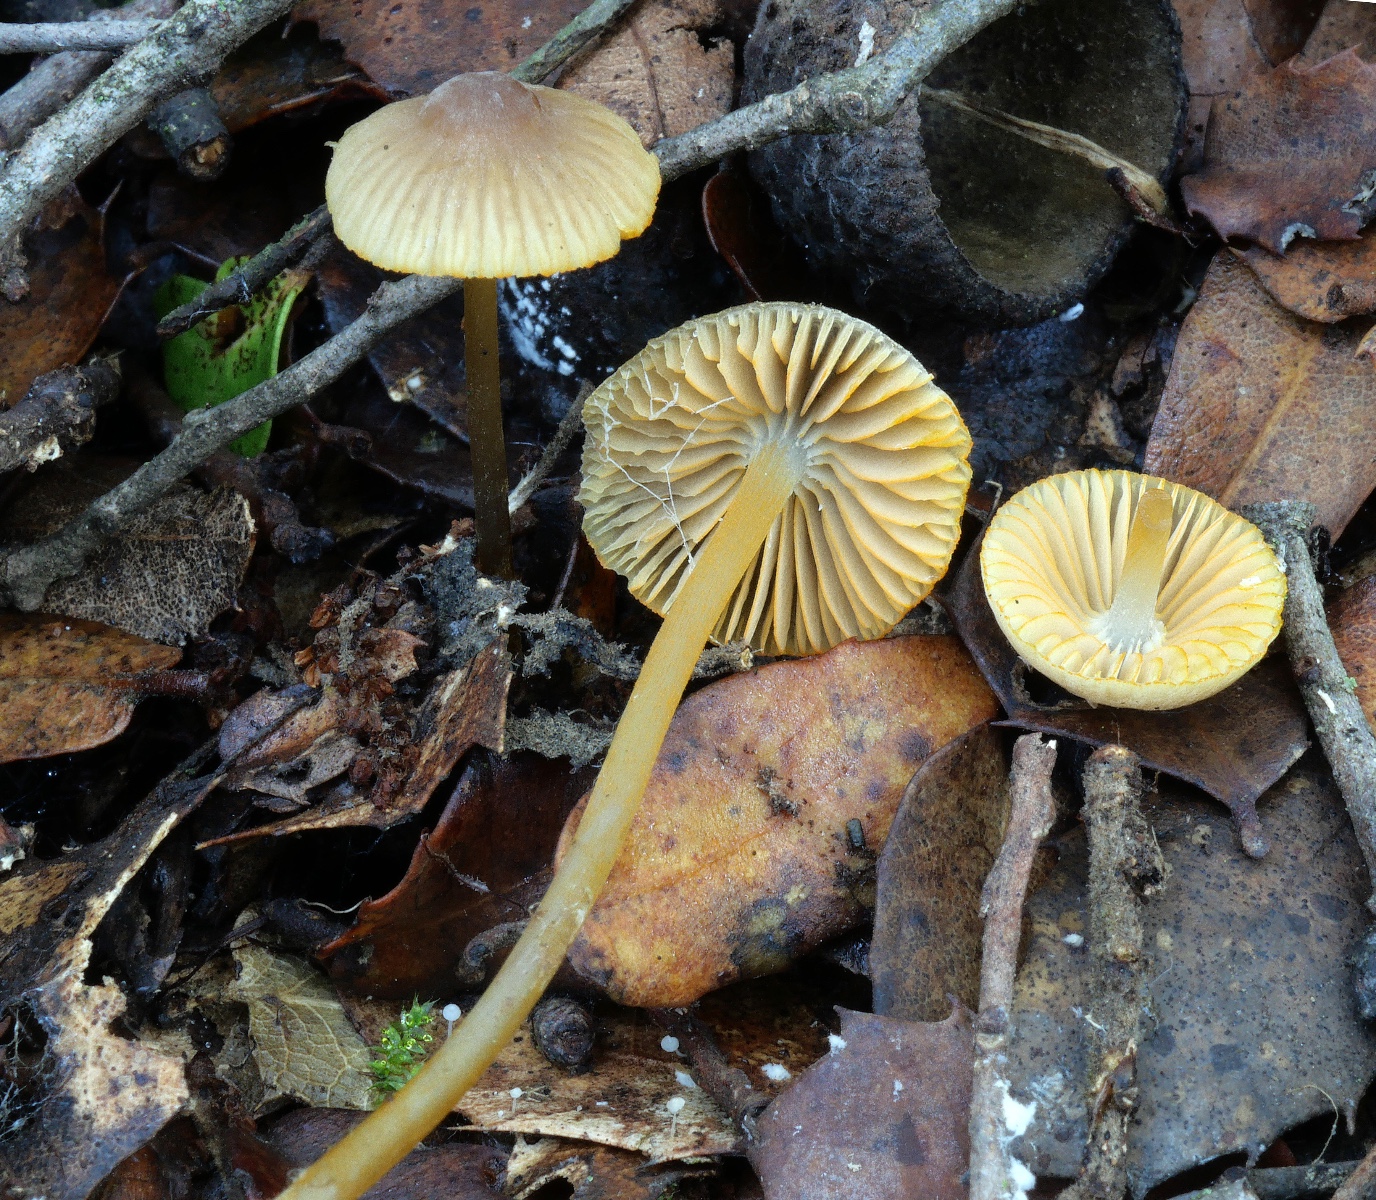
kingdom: Fungi
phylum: Basidiomycota
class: Agaricomycetes
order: Agaricales
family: Mycenaceae
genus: Mycena
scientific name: Mycena aurantiomarginata
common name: orangeægget huesvamp
